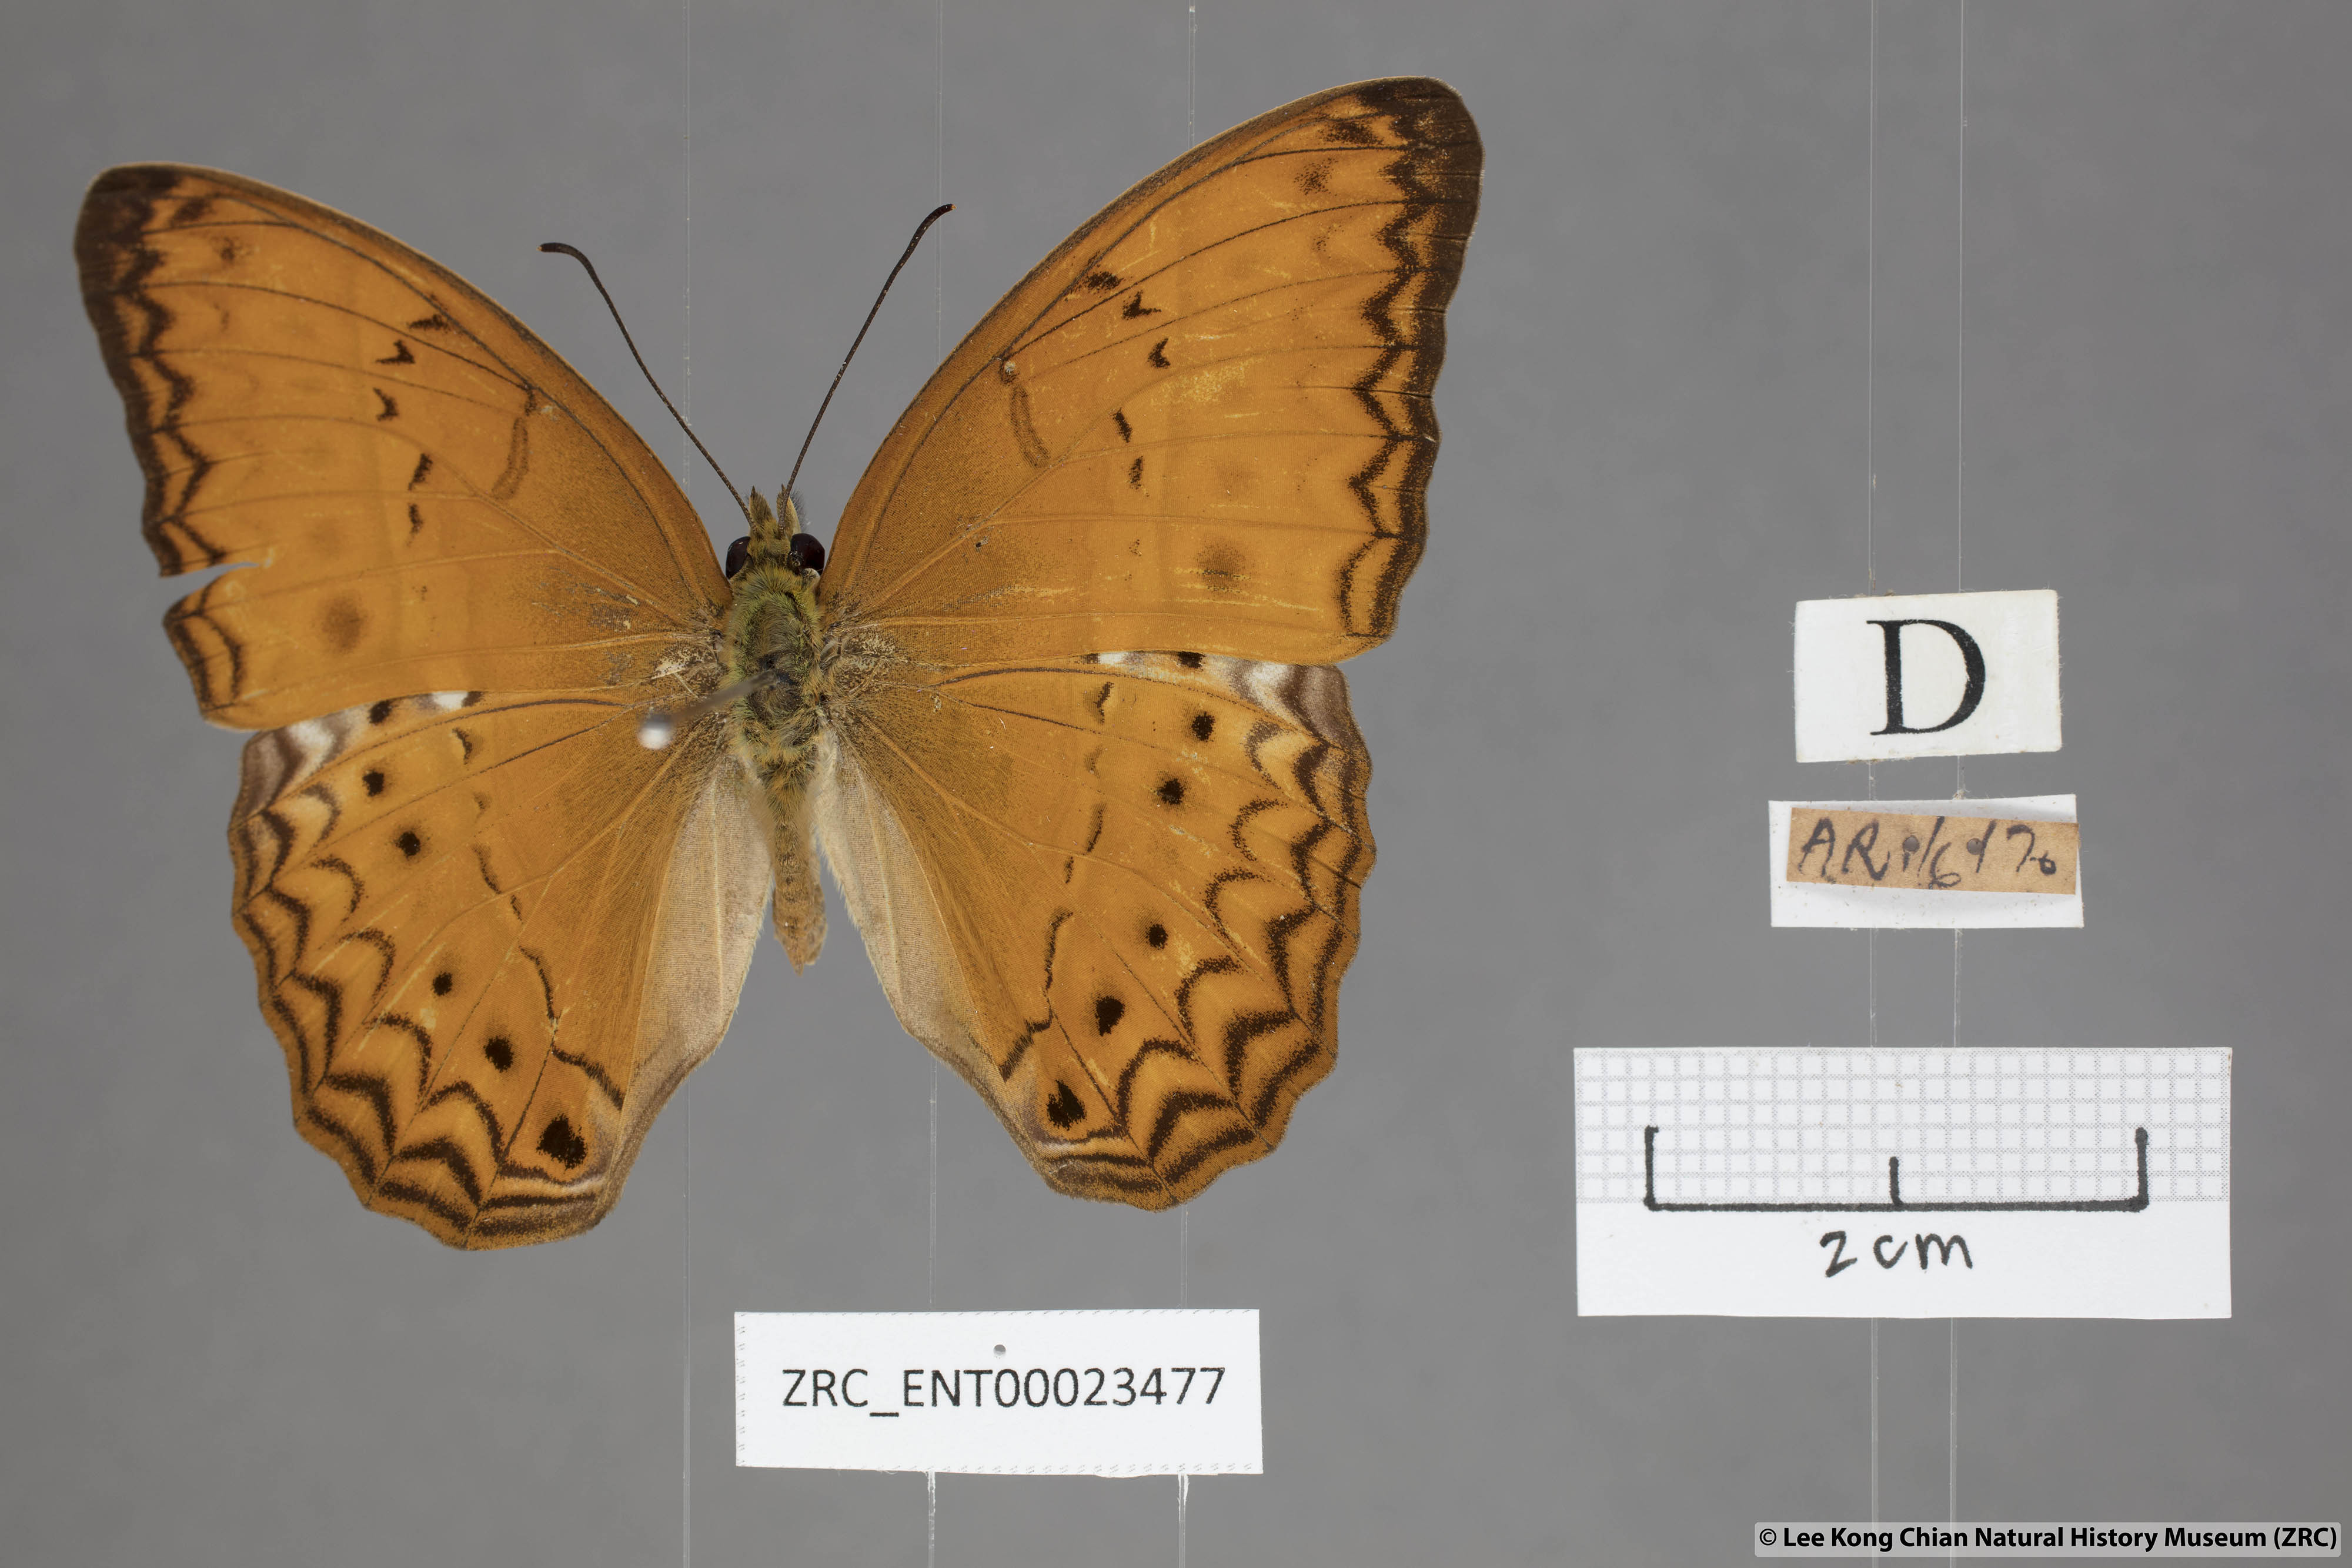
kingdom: Animalia
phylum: Arthropoda
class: Insecta
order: Lepidoptera
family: Nymphalidae
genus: Cirrochroa
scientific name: Cirrochroa tyche
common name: Common yeoman
